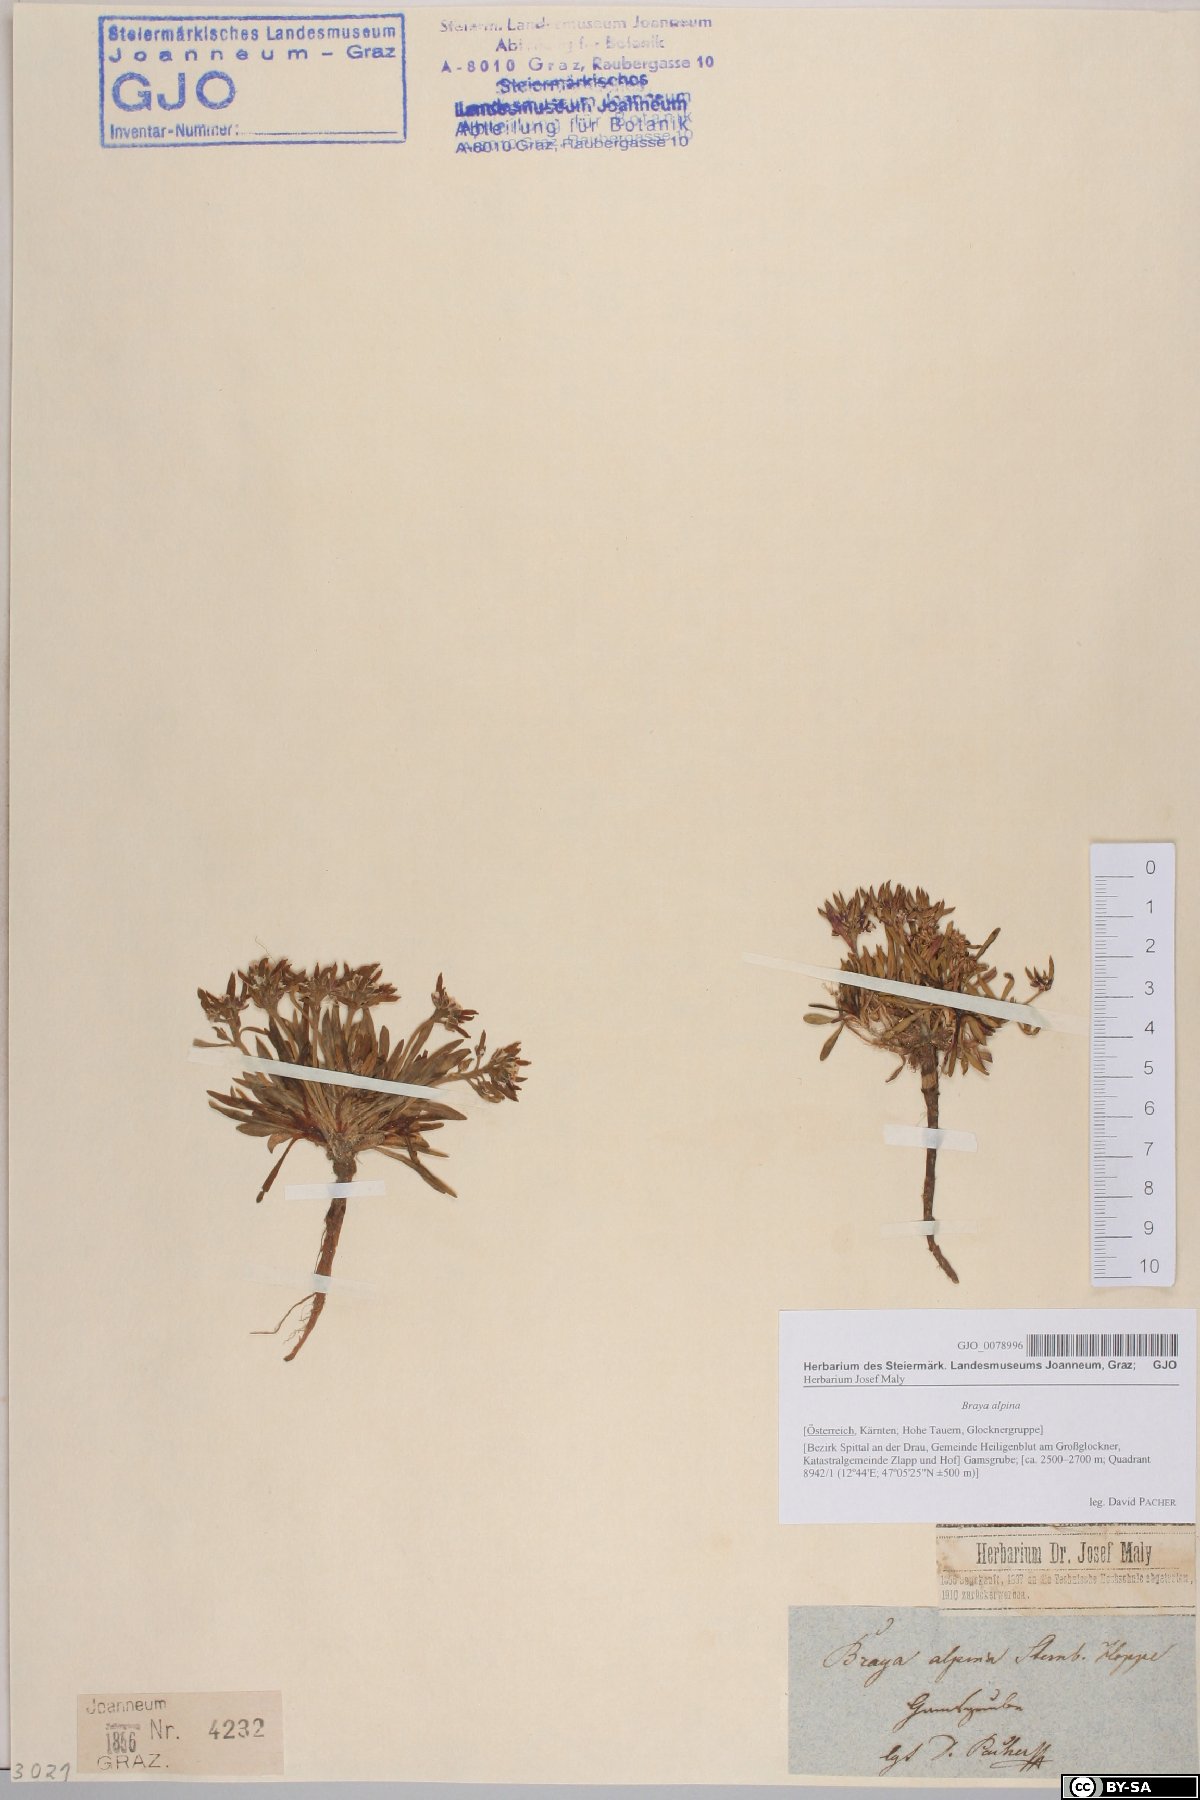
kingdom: Plantae
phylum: Tracheophyta
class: Magnoliopsida
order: Brassicales
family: Brassicaceae
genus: Braya
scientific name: Braya alpina
